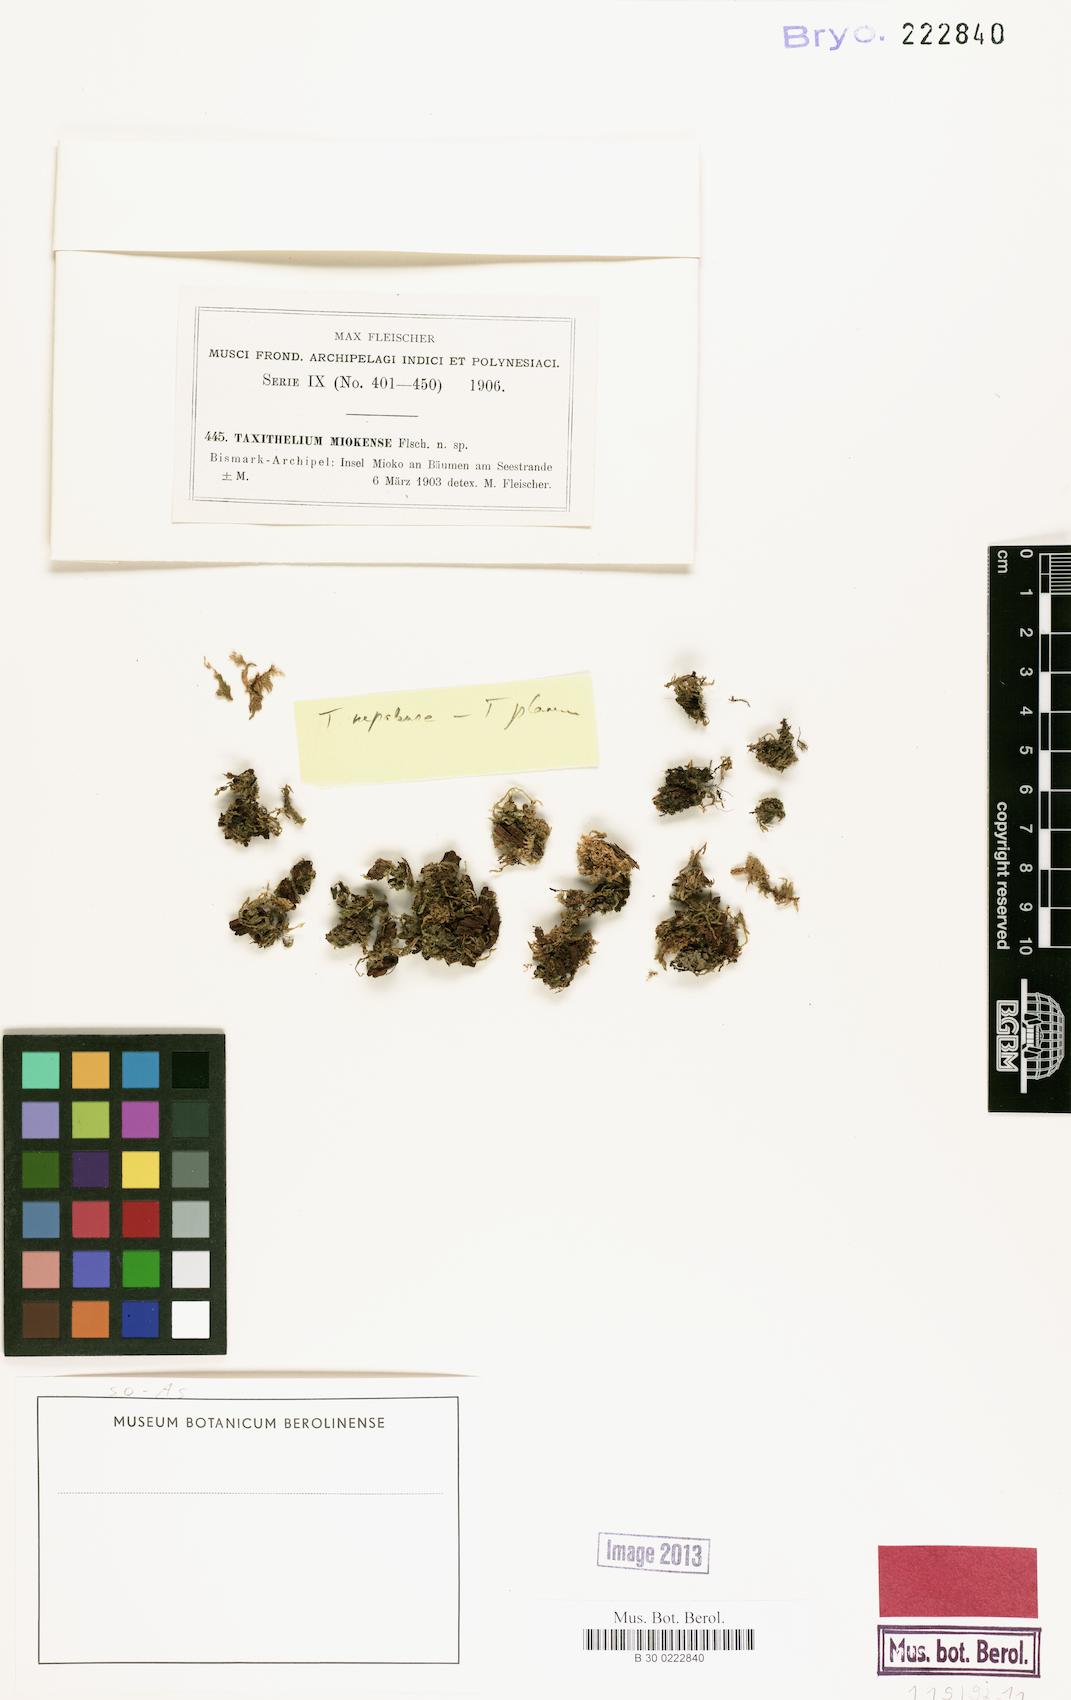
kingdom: Plantae
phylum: Bryophyta
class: Bryopsida
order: Hypnales
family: Pylaisiadelphaceae
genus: Taxithelium
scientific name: Taxithelium
